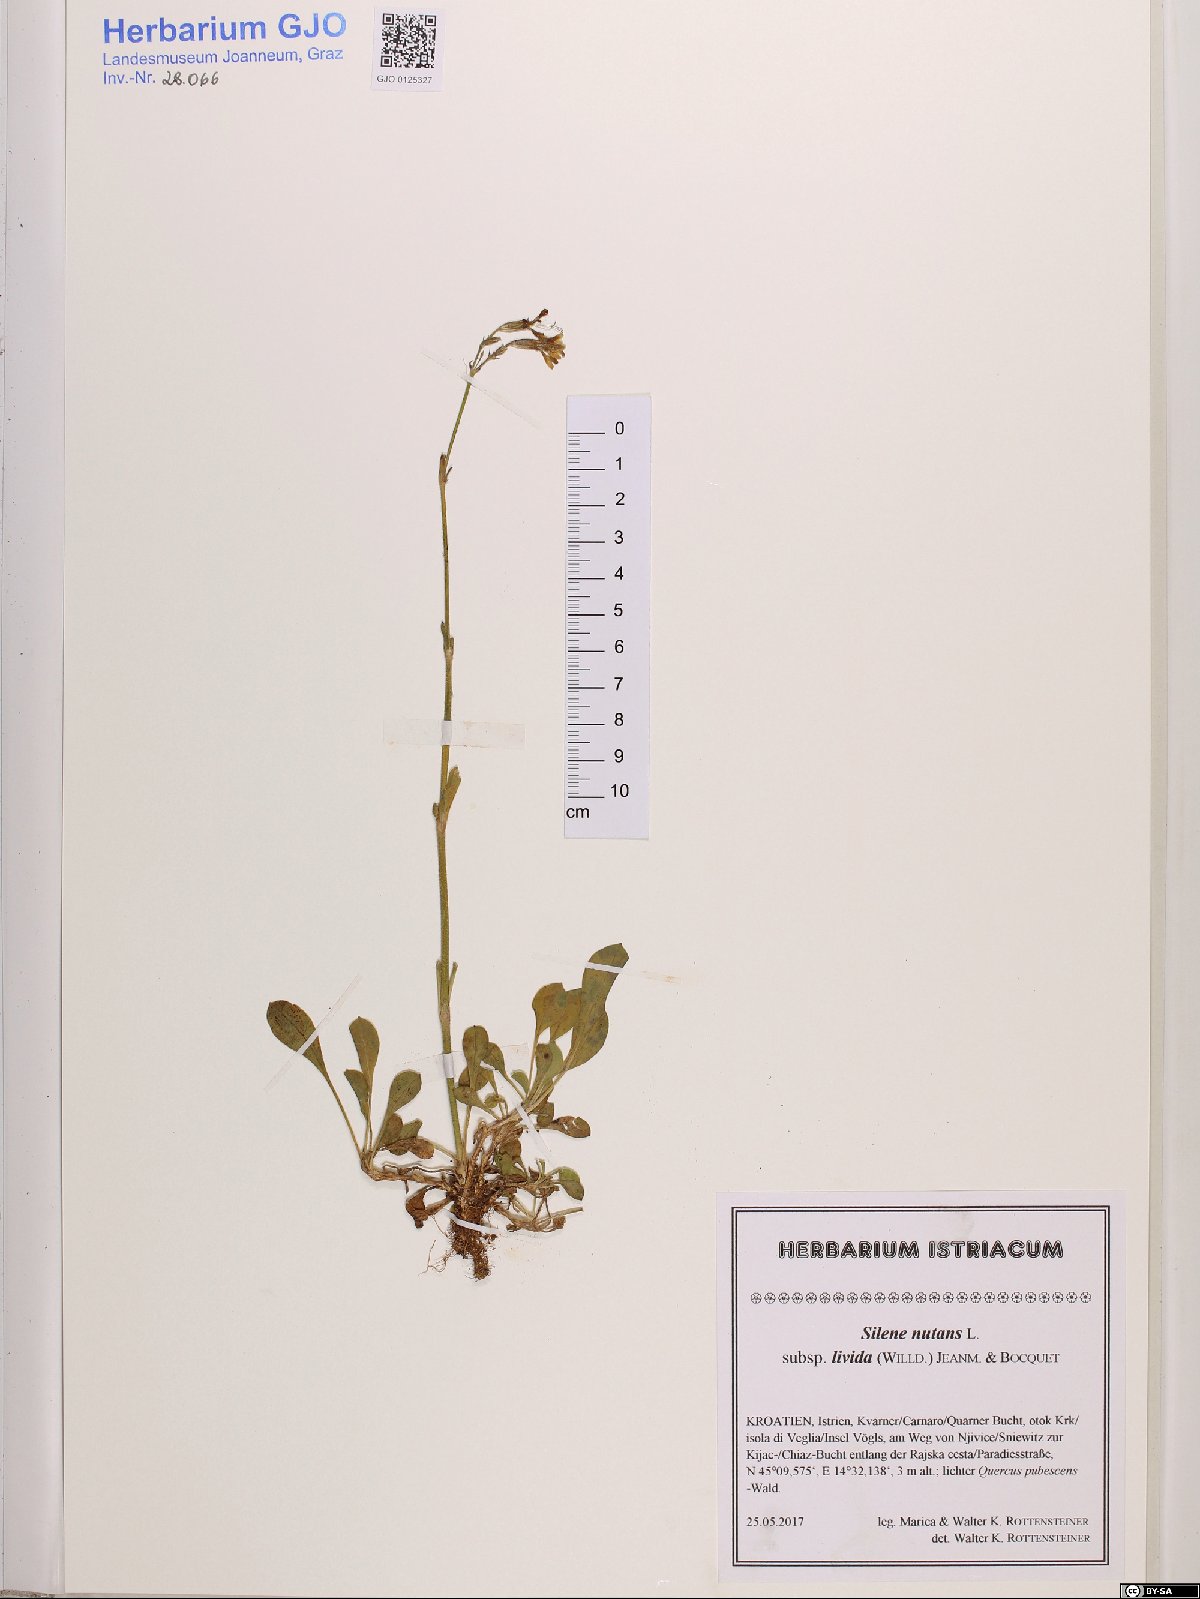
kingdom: Plantae
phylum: Tracheophyta
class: Magnoliopsida
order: Caryophyllales
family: Caryophyllaceae
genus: Silene
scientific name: Silene nutans
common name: Nottingham catchfly
